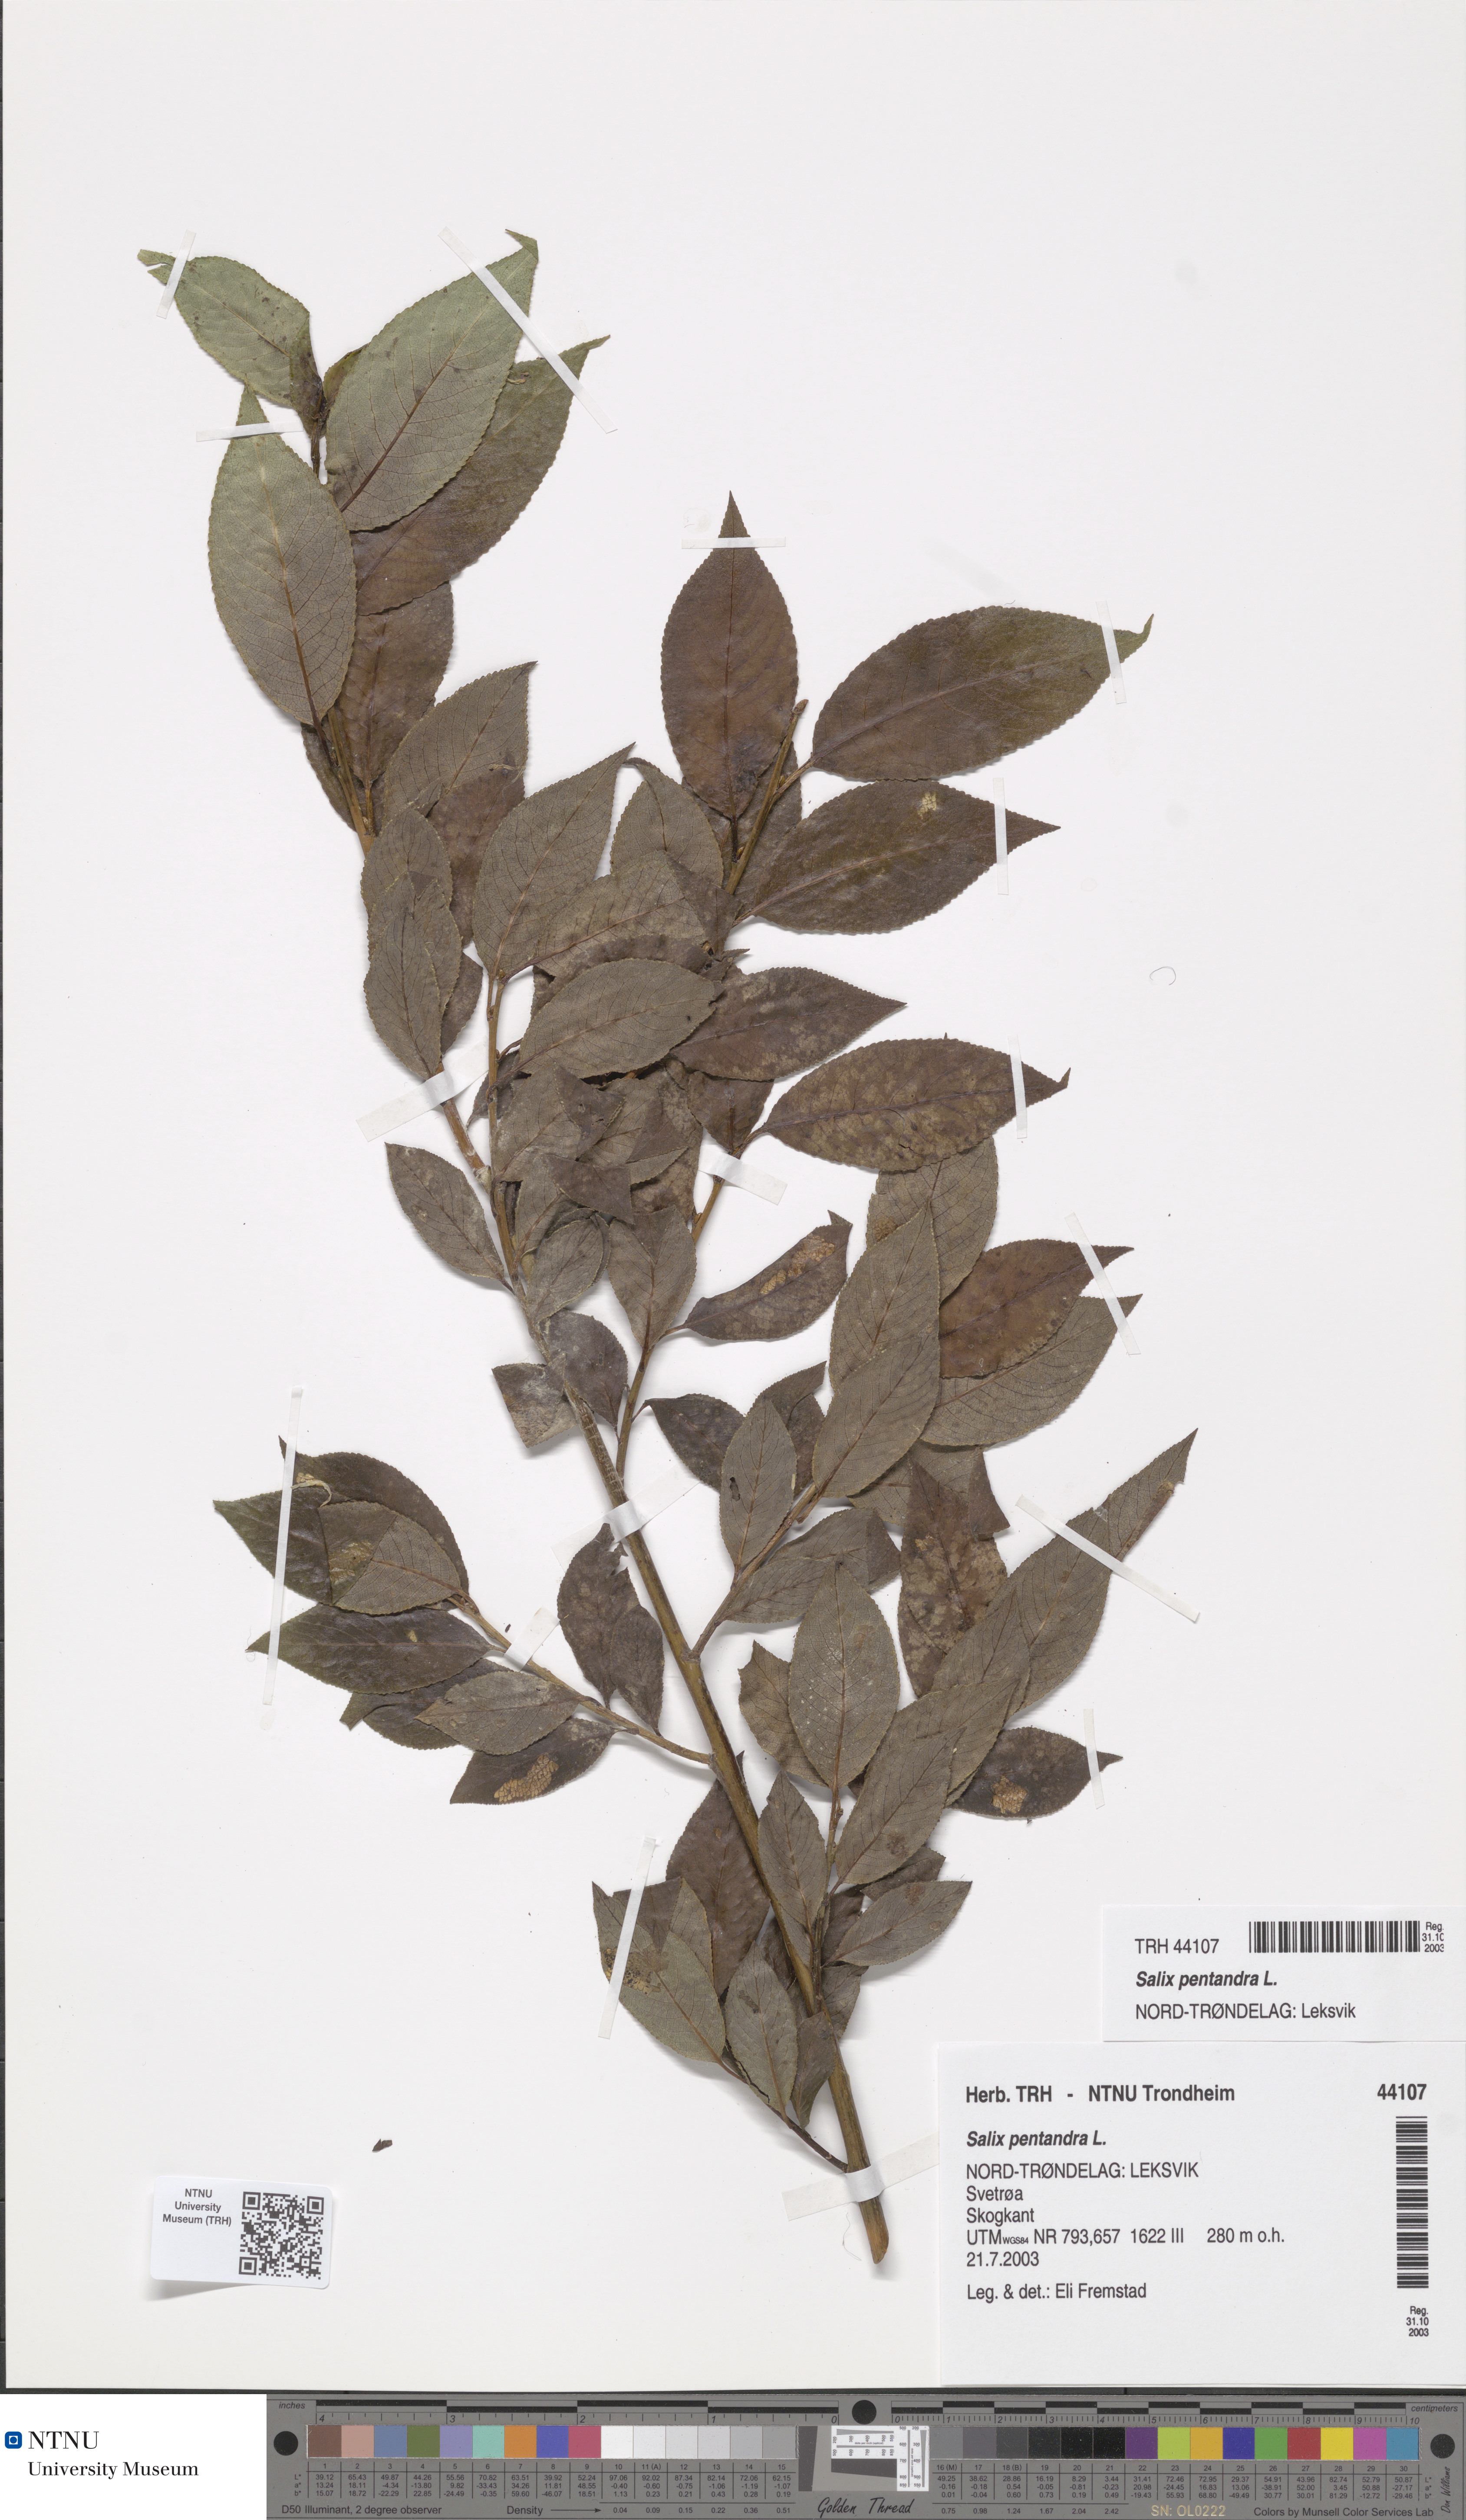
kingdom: Plantae
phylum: Tracheophyta
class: Magnoliopsida
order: Malpighiales
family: Salicaceae
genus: Salix
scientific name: Salix pentandra
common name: Bay willow
